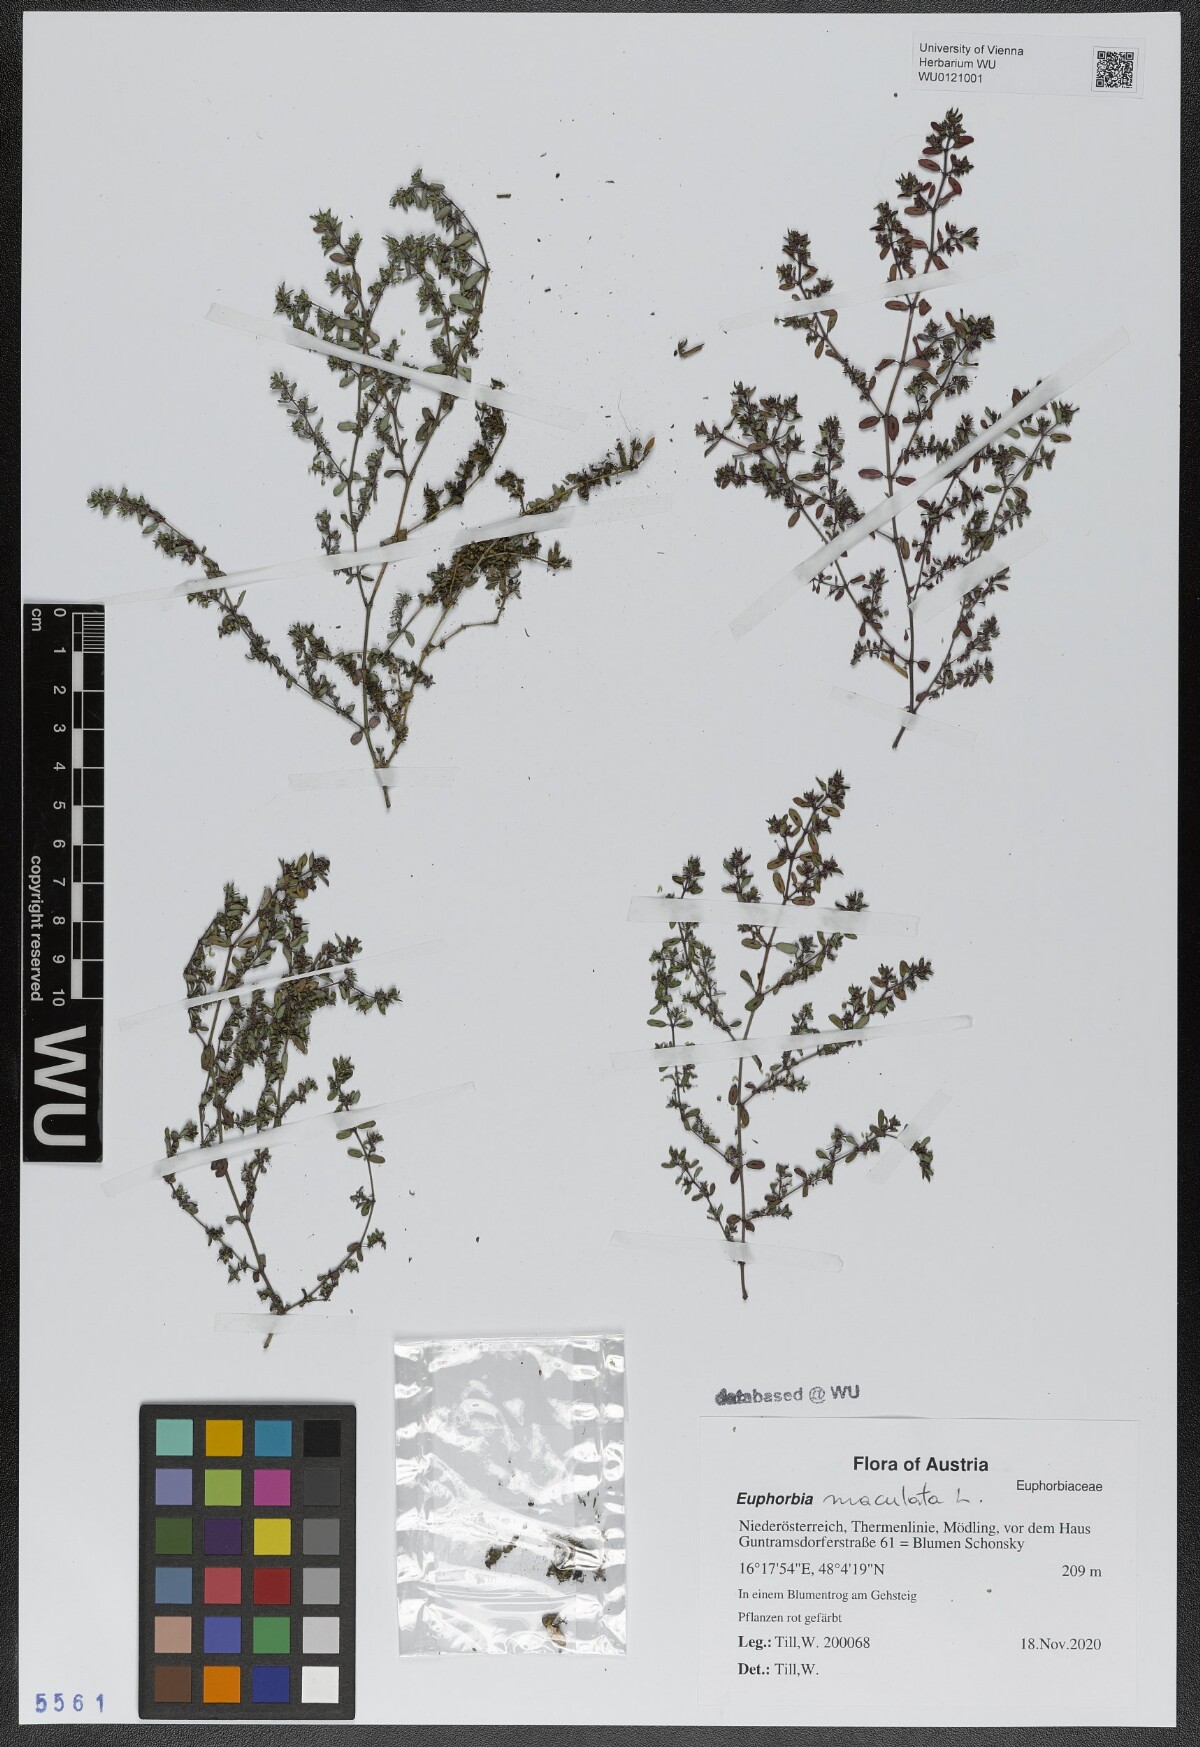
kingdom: Plantae
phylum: Tracheophyta
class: Magnoliopsida
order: Malpighiales
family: Euphorbiaceae
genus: Euphorbia
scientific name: Euphorbia maculata
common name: Spotted spurge
